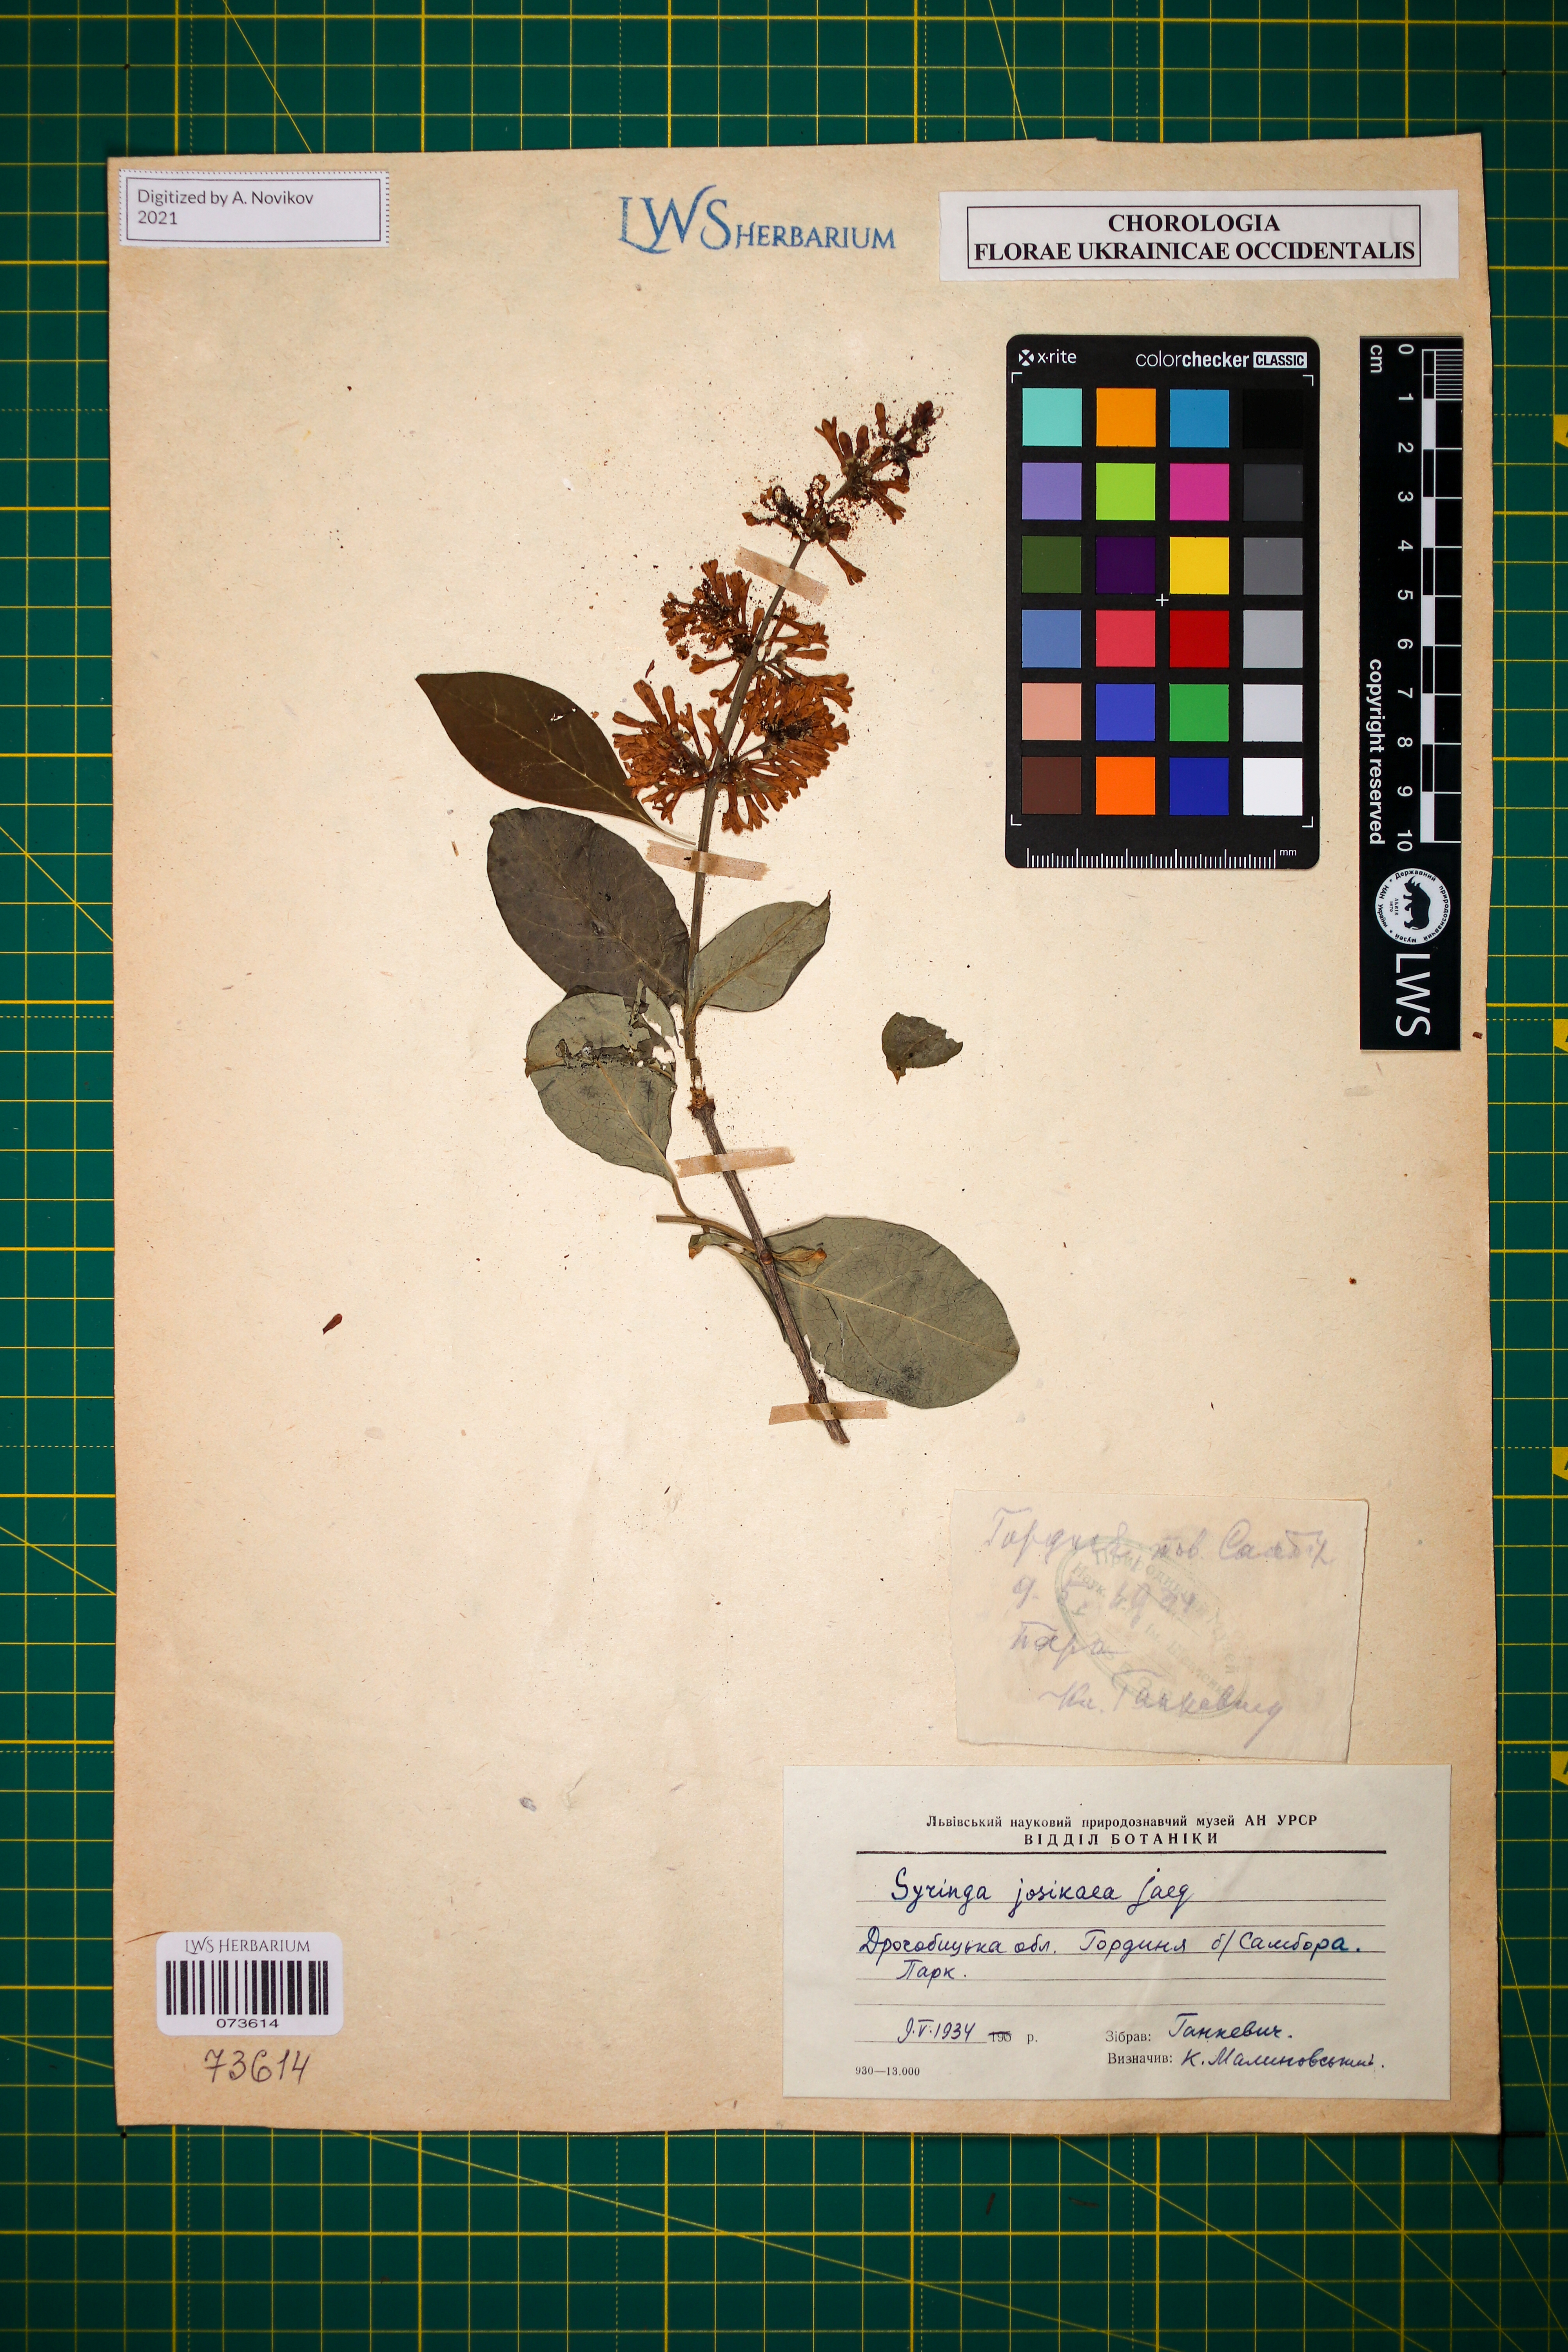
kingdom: Plantae
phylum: Tracheophyta
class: Magnoliopsida
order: Lamiales
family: Oleaceae
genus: Syringa
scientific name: Syringa josikaea
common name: Hungarian lilac
